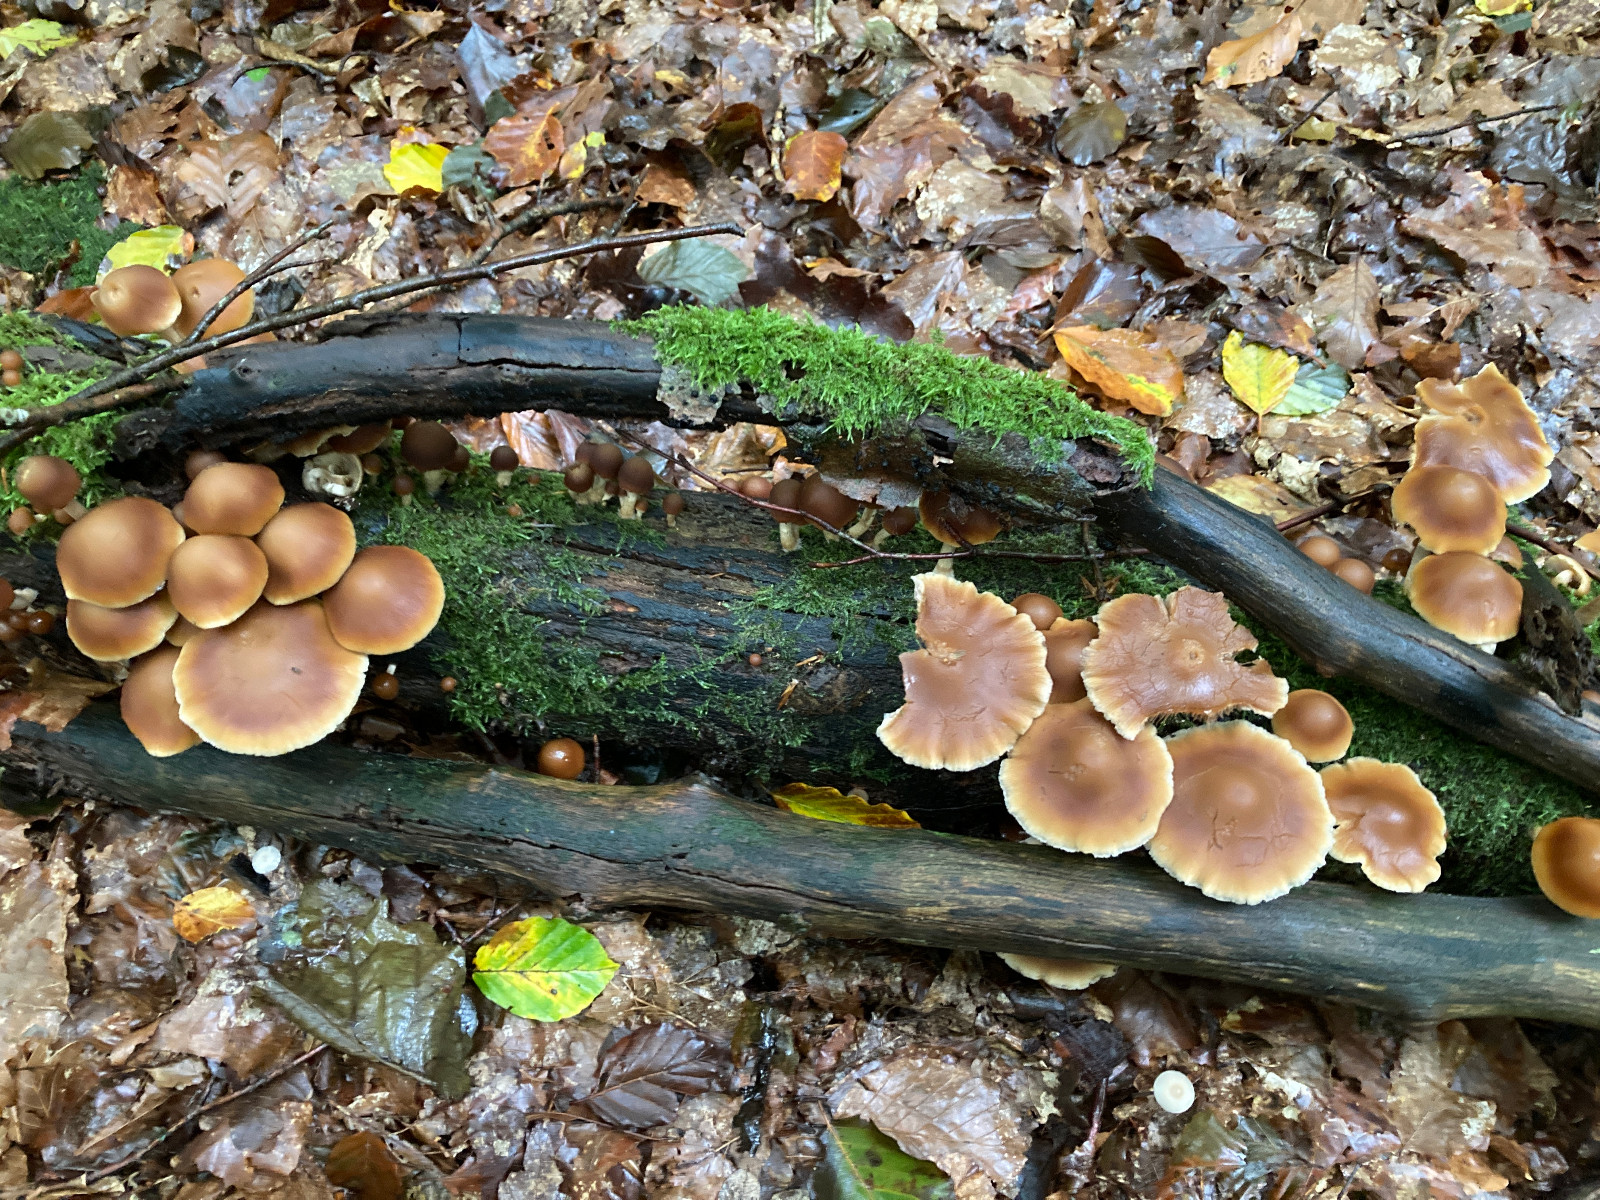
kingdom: Fungi
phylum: Basidiomycota
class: Agaricomycetes
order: Agaricales
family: Psathyrellaceae
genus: Psathyrella
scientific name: Psathyrella piluliformis
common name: lysstokket mørkhat
